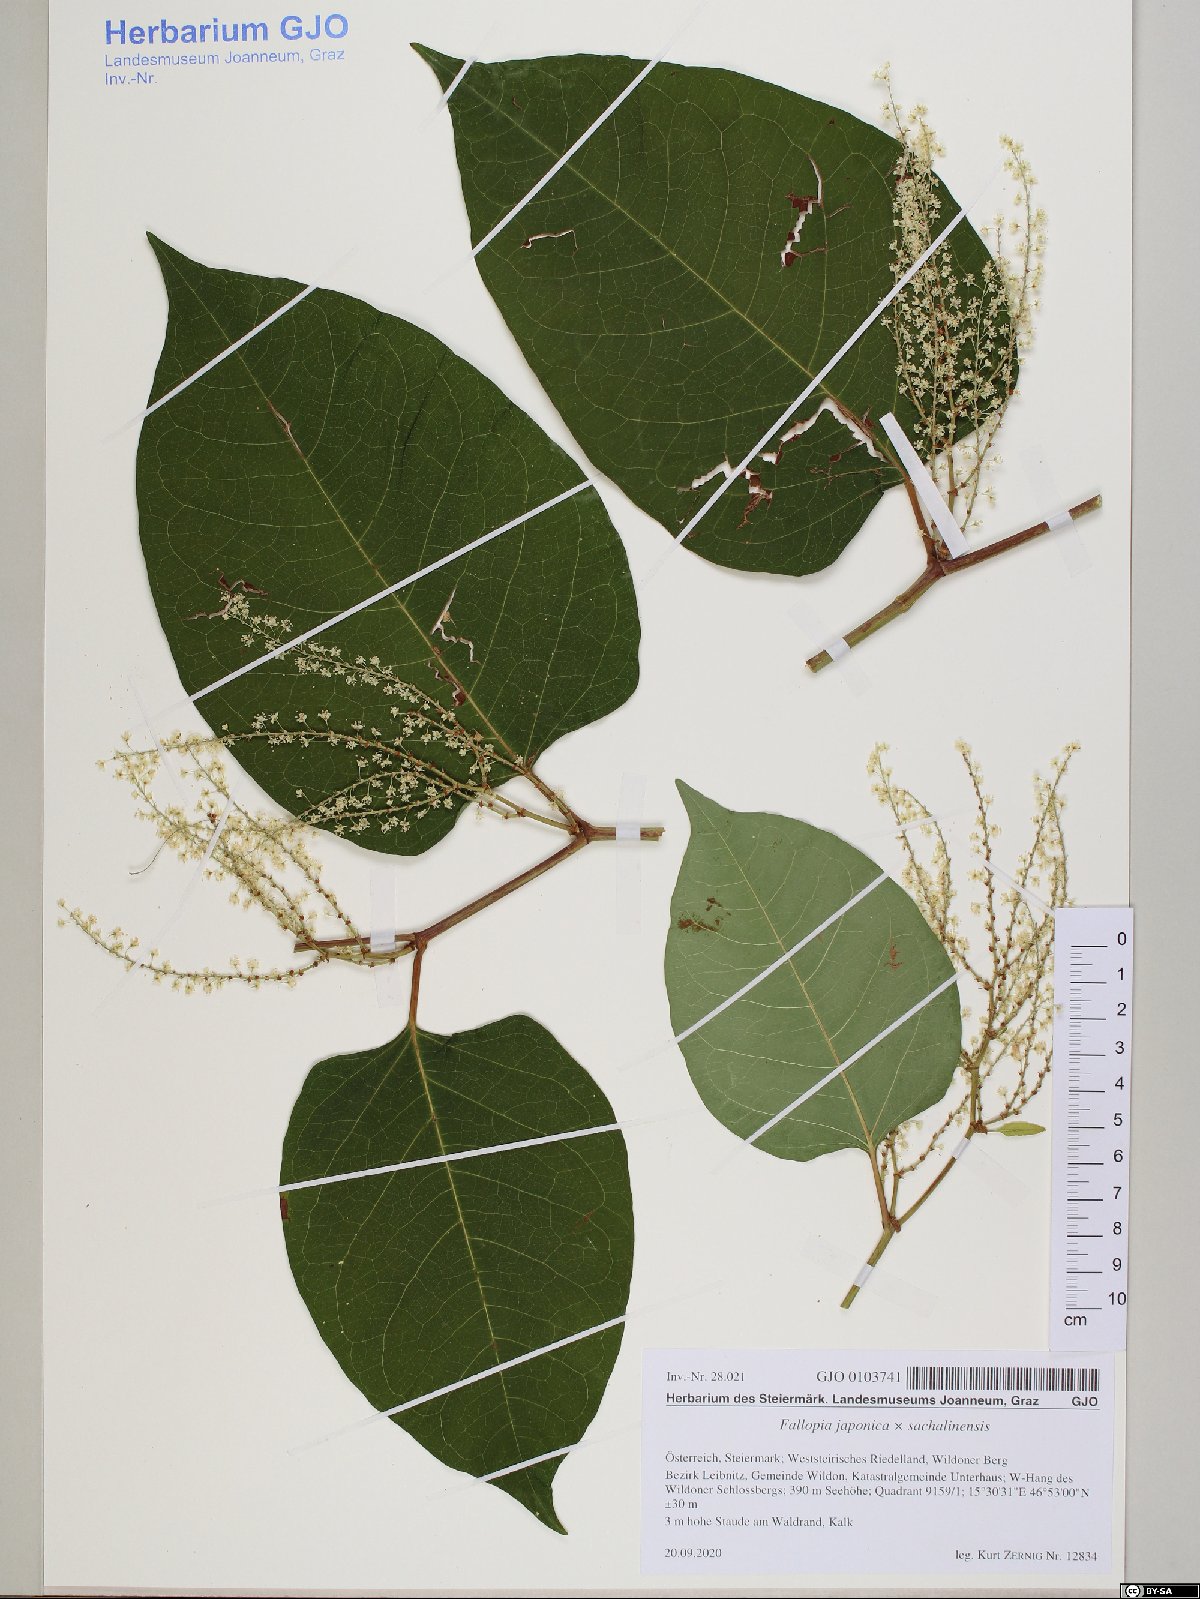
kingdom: Plantae
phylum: Tracheophyta
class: Magnoliopsida
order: Caryophyllales
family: Polygonaceae
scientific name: Polygonaceae
